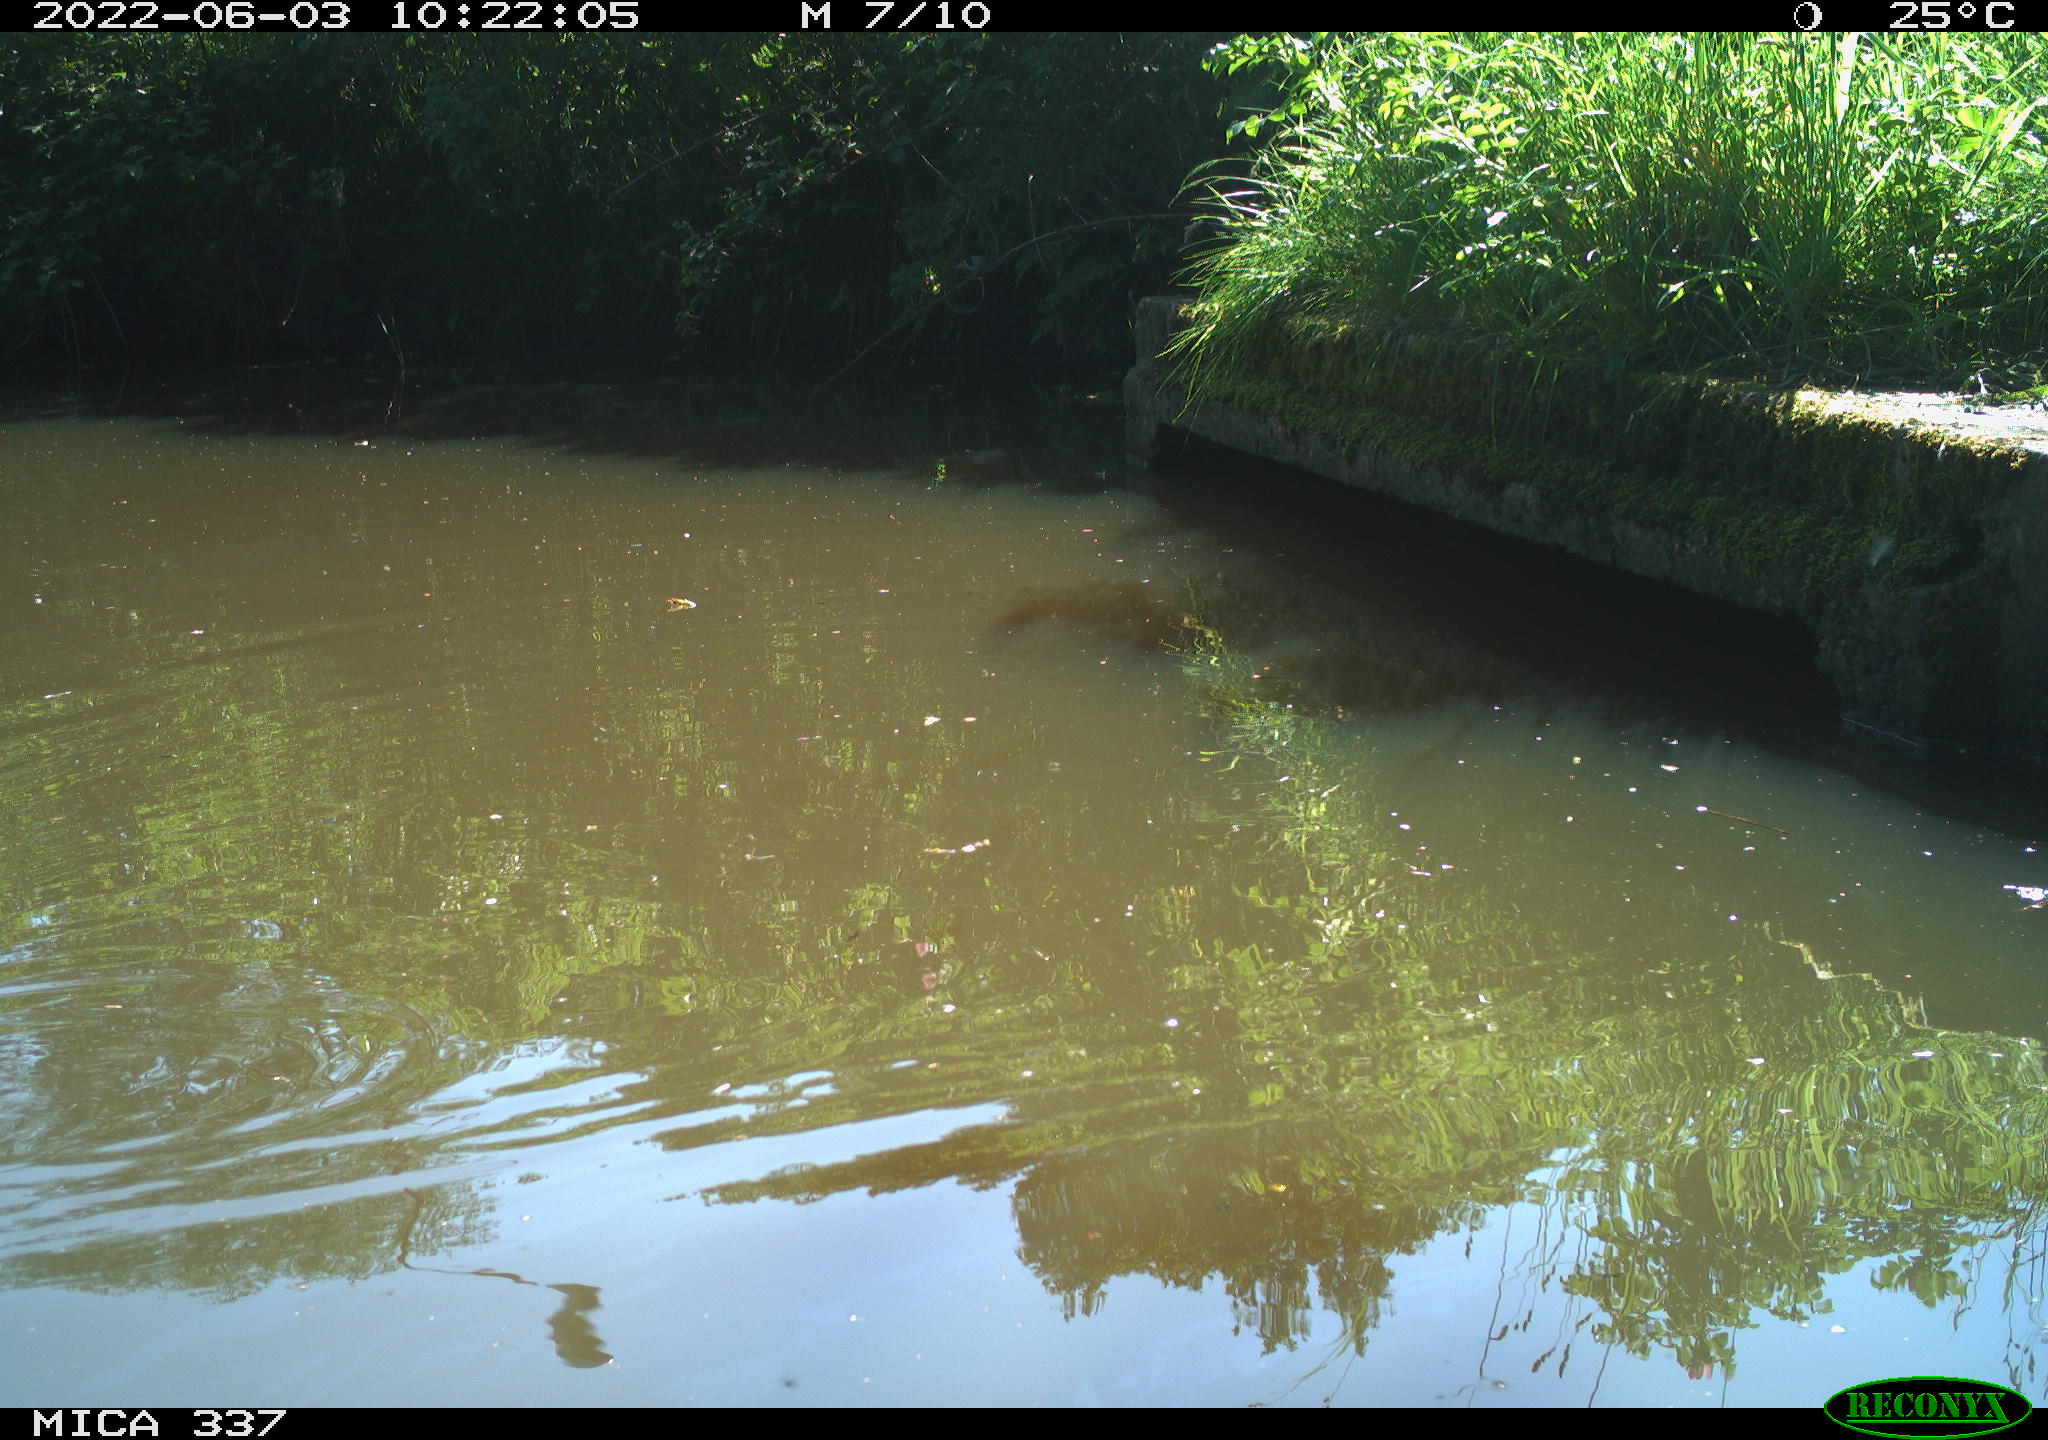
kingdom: Animalia
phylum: Chordata
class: Aves
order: Gruiformes
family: Rallidae
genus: Gallinula
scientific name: Gallinula chloropus
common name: Common moorhen
